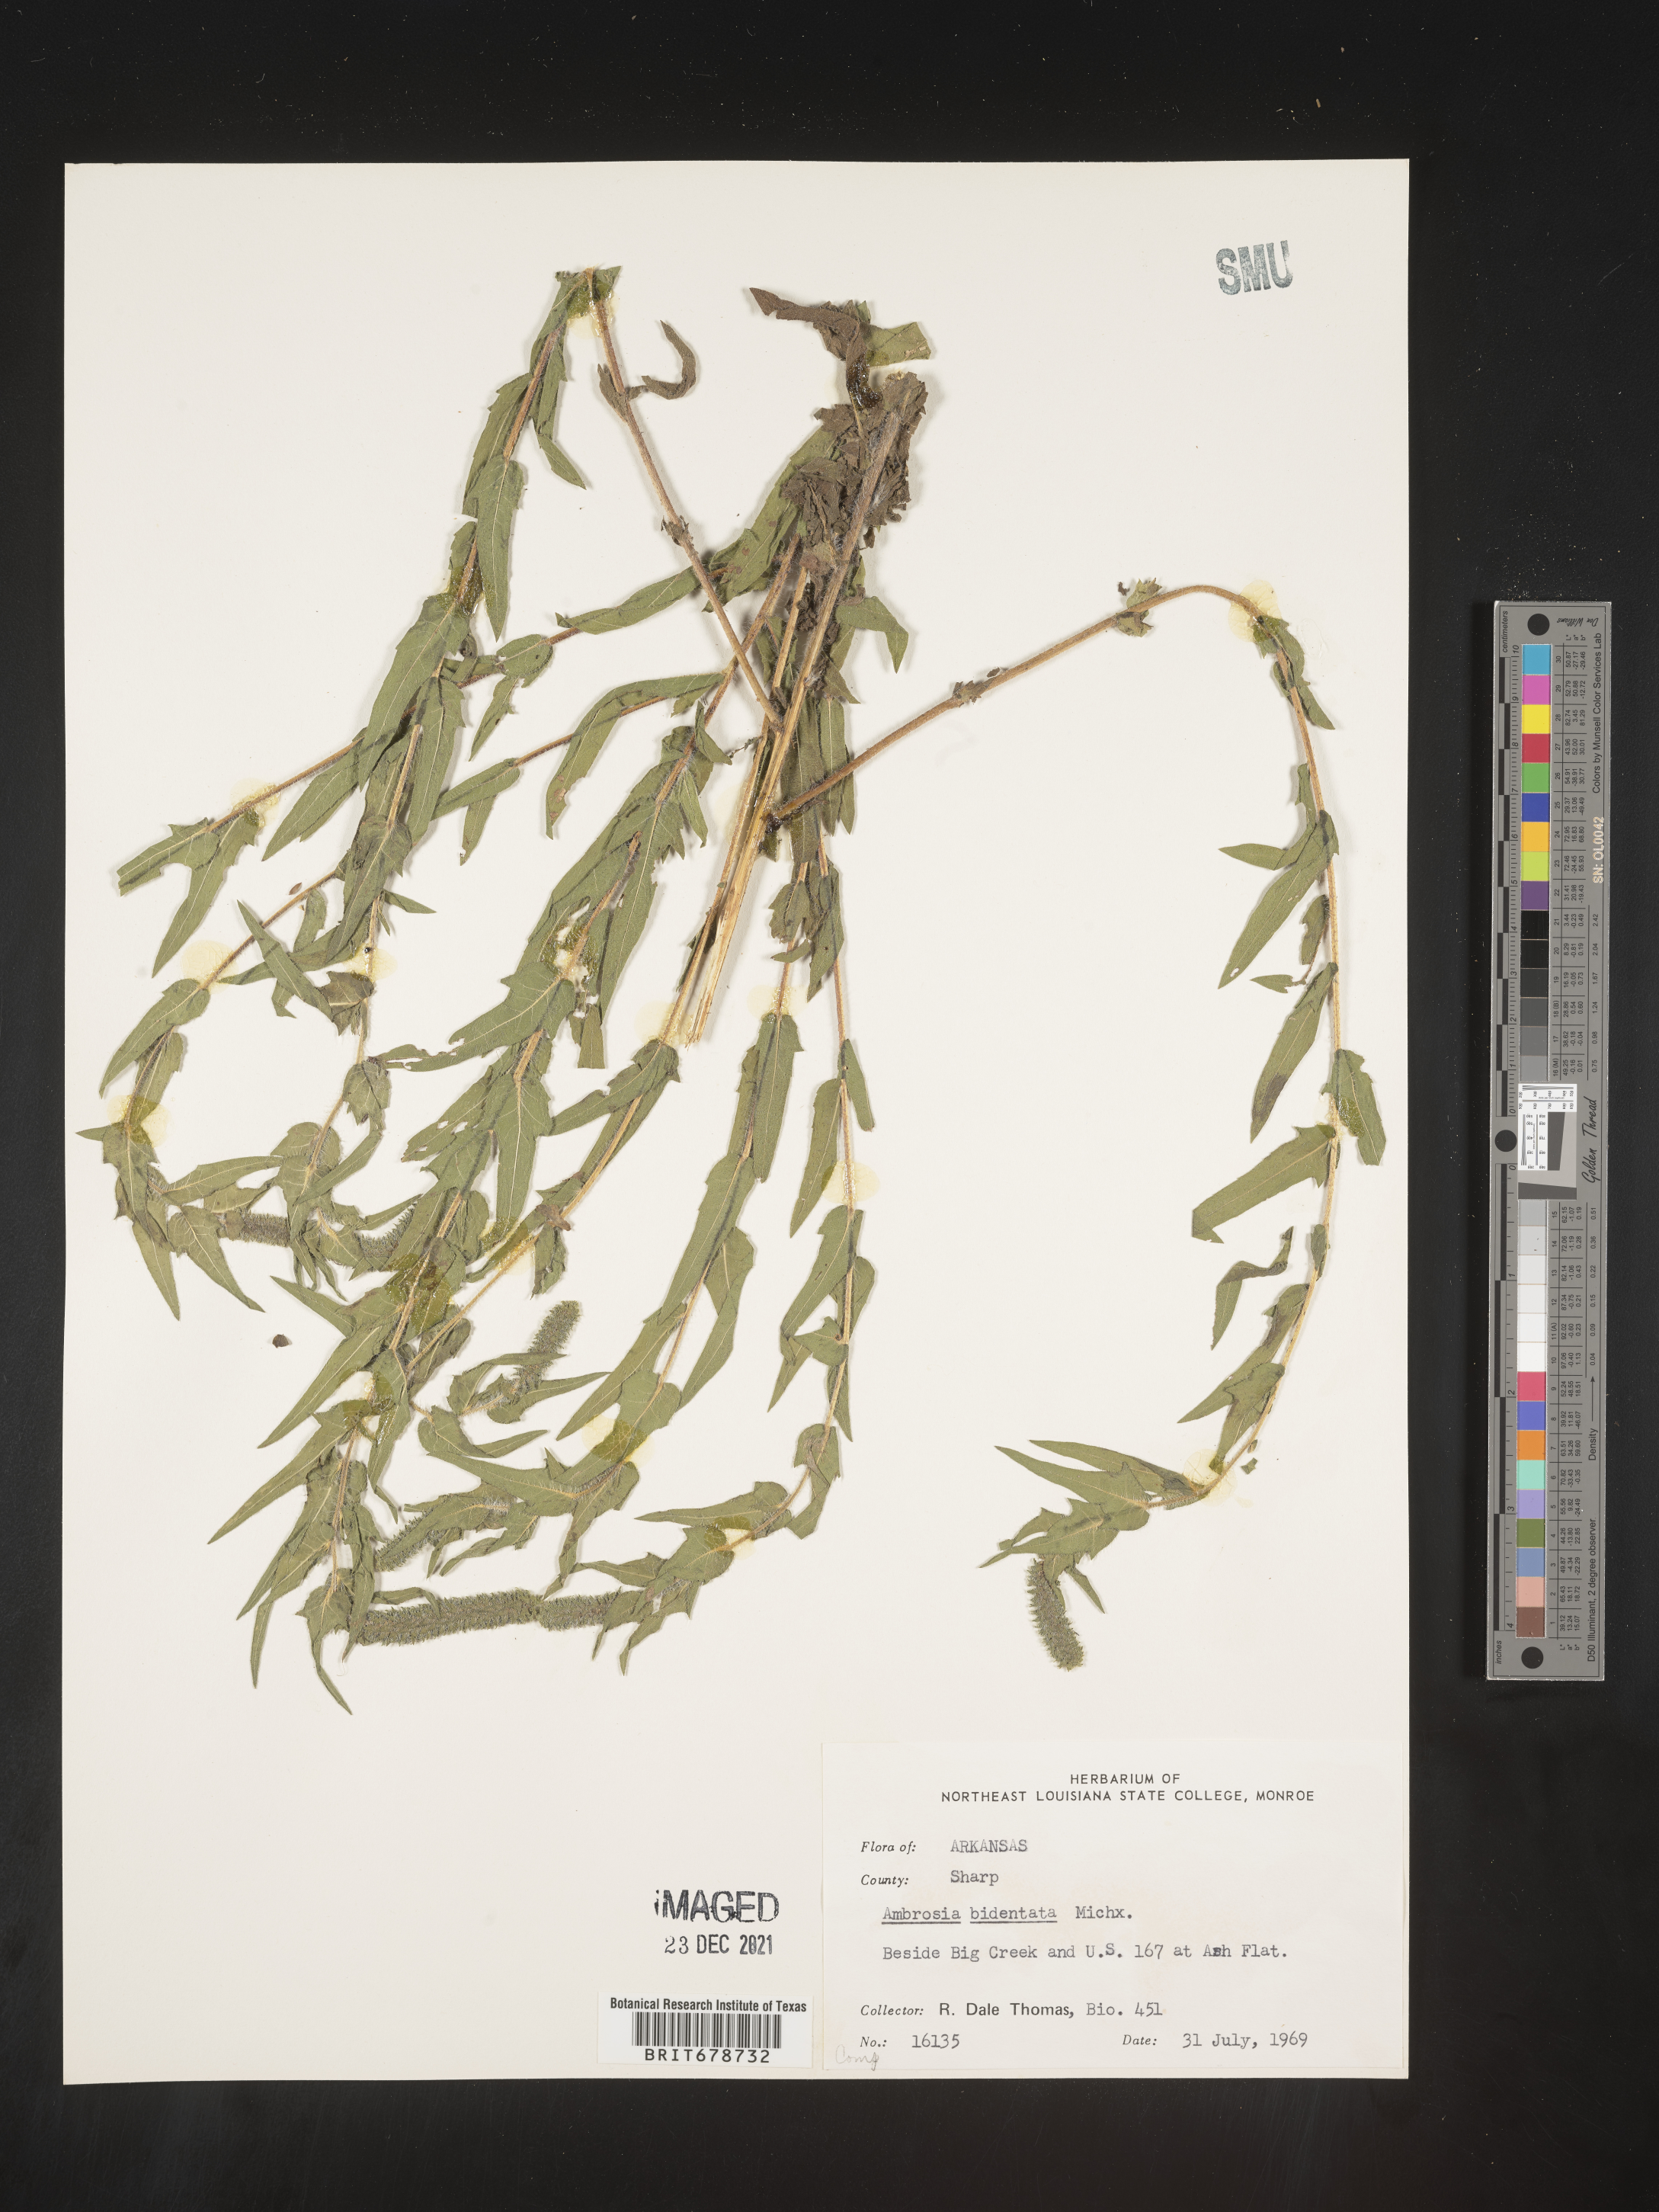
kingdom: Plantae
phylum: Tracheophyta
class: Magnoliopsida
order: Asterales
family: Asteraceae
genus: Ambrosia
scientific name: Ambrosia bidentata
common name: Southern ragweed
